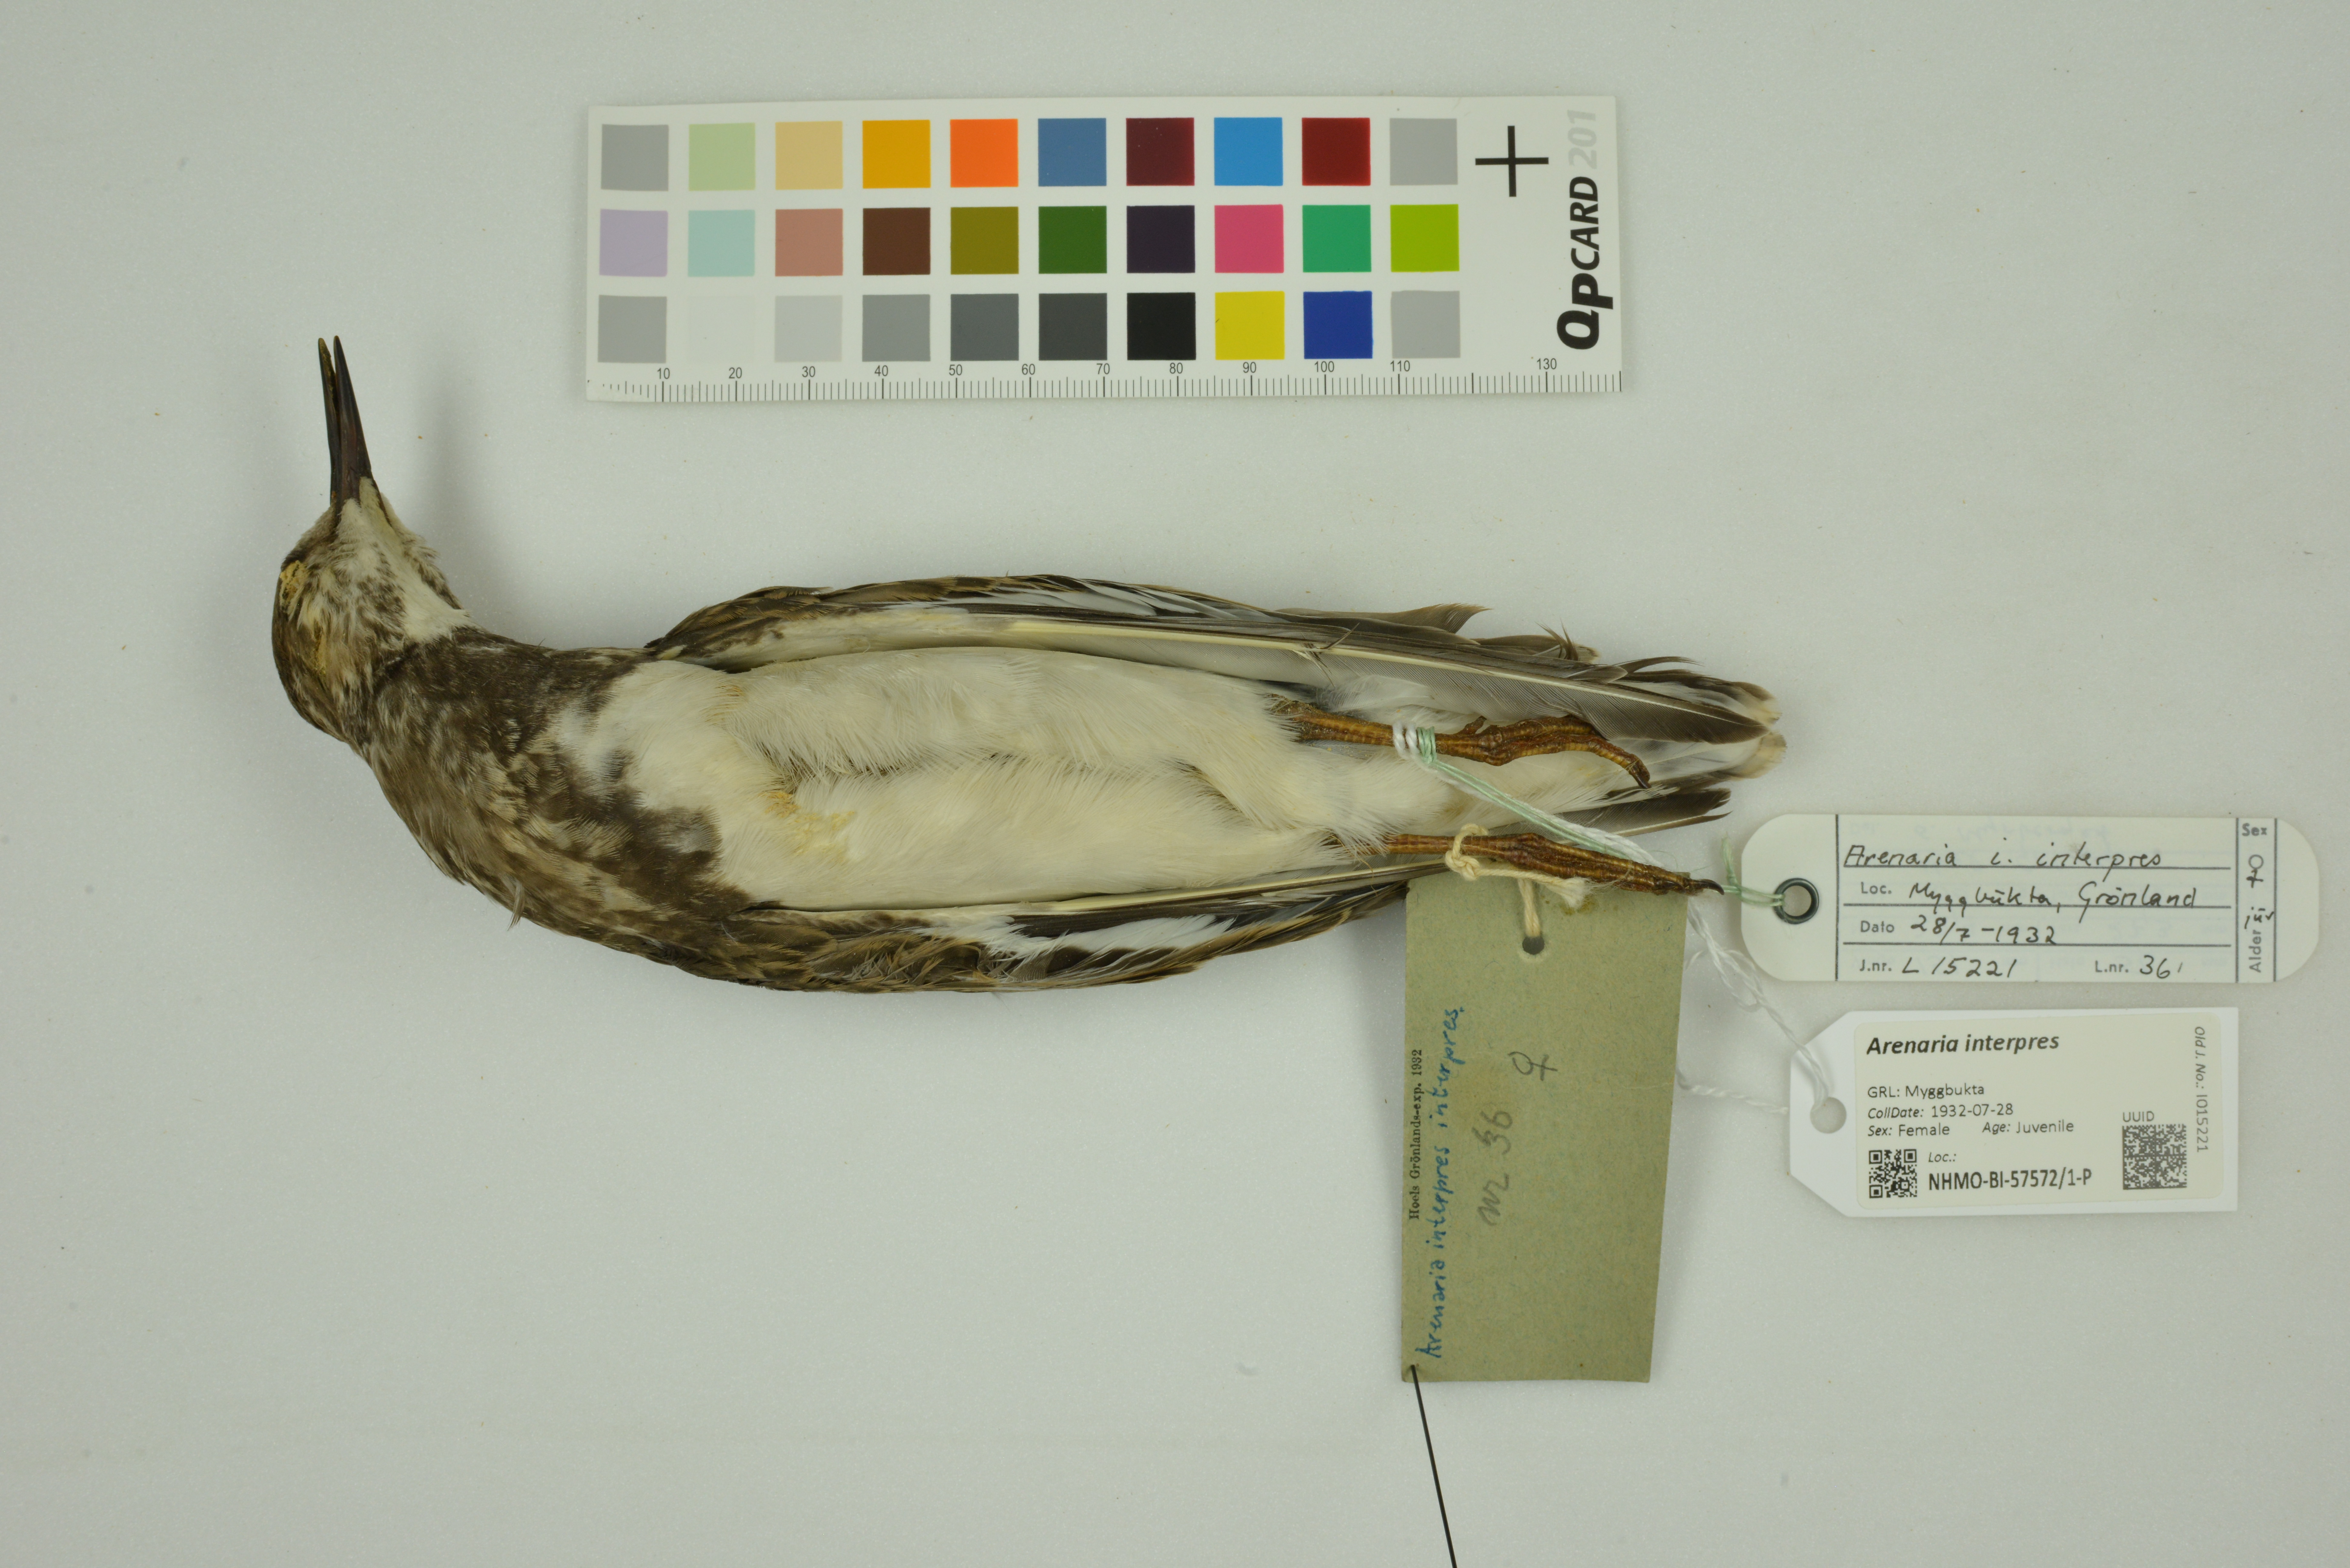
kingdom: Animalia
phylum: Chordata
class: Aves
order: Charadriiformes
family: Scolopacidae
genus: Arenaria
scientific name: Arenaria interpres
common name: Ruddy turnstone
